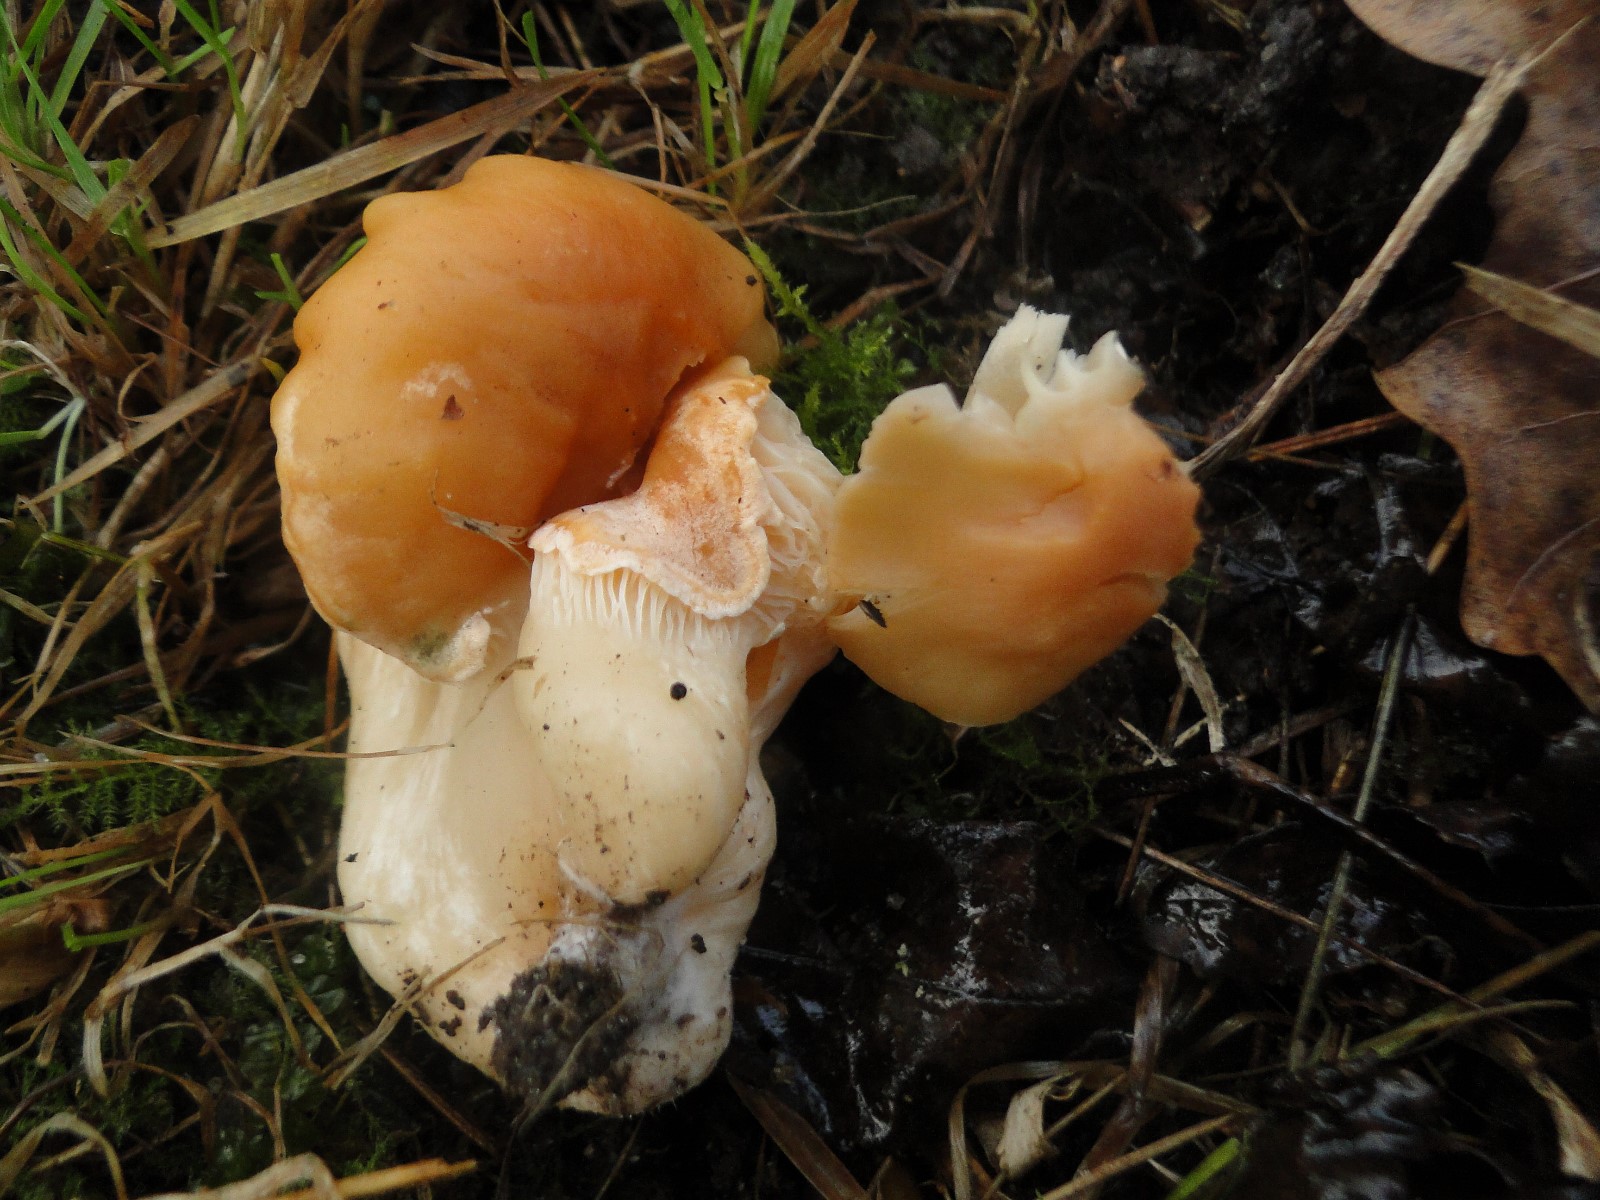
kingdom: Fungi
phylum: Basidiomycota
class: Agaricomycetes
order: Agaricales
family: Hygrophoraceae
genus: Cuphophyllus
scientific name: Cuphophyllus pratensis
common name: eng-vokshat
